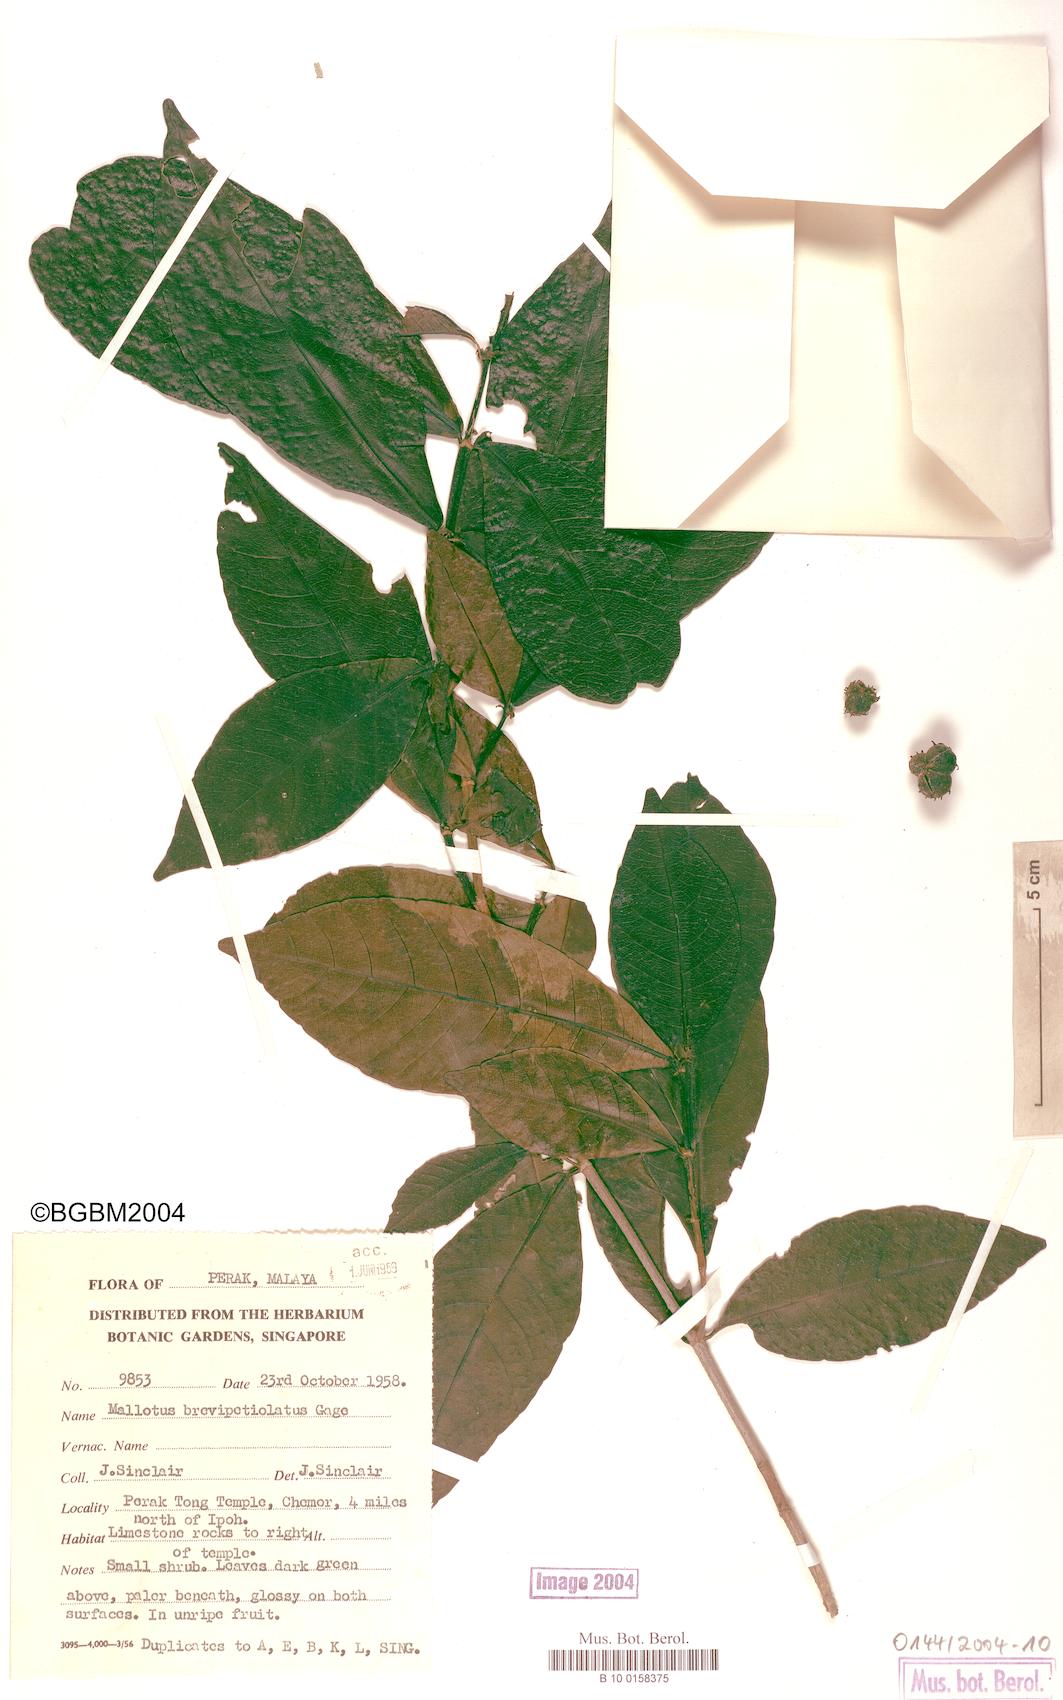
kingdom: Plantae
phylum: Tracheophyta
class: Magnoliopsida
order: Malpighiales
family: Euphorbiaceae
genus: Mallotus
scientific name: Mallotus brevipetiolatus
